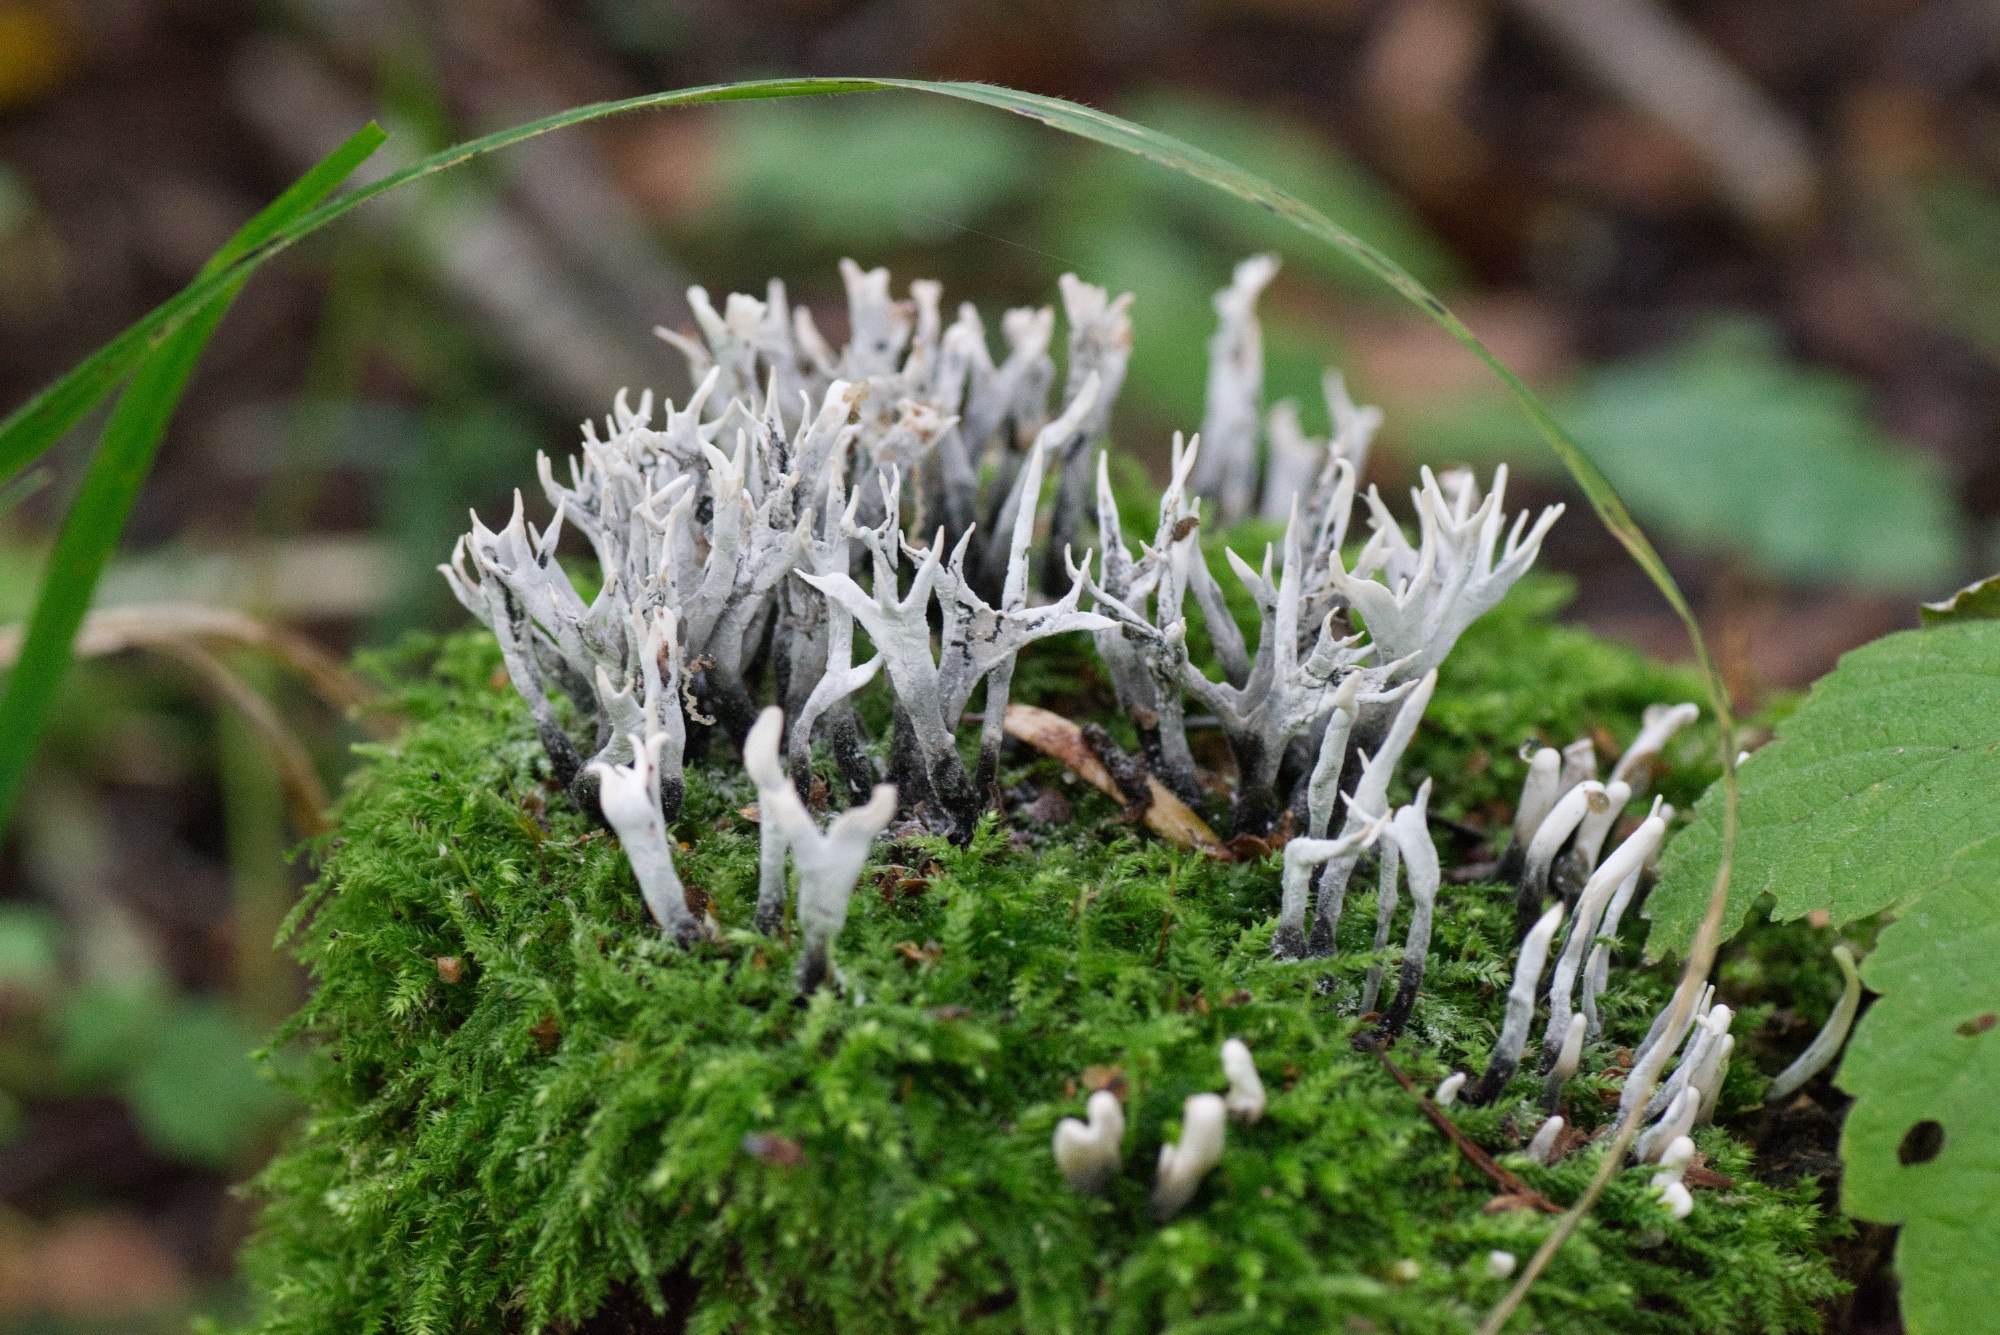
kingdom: Fungi
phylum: Ascomycota
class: Sordariomycetes
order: Xylariales
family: Xylariaceae
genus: Xylaria
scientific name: Xylaria hypoxylon
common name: grenet stødsvamp
